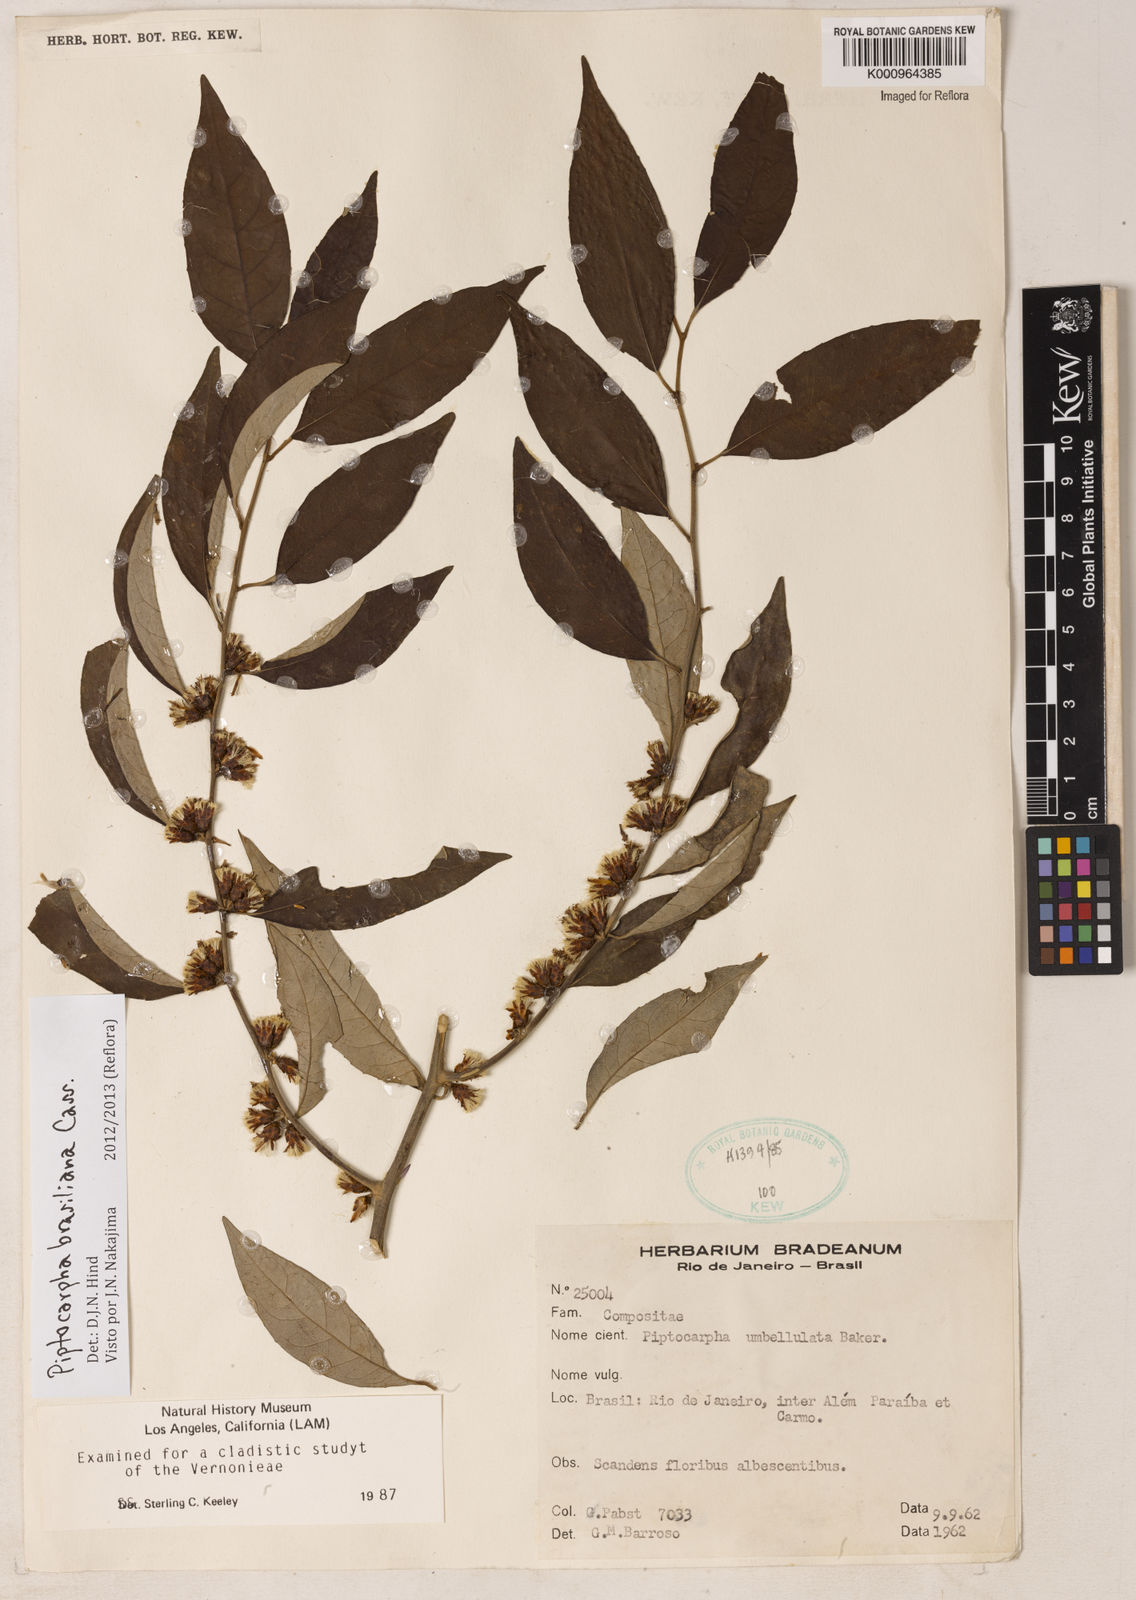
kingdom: Plantae
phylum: Tracheophyta
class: Magnoliopsida
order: Asterales
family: Asteraceae
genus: Piptocarpha
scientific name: Piptocarpha brasiliana
